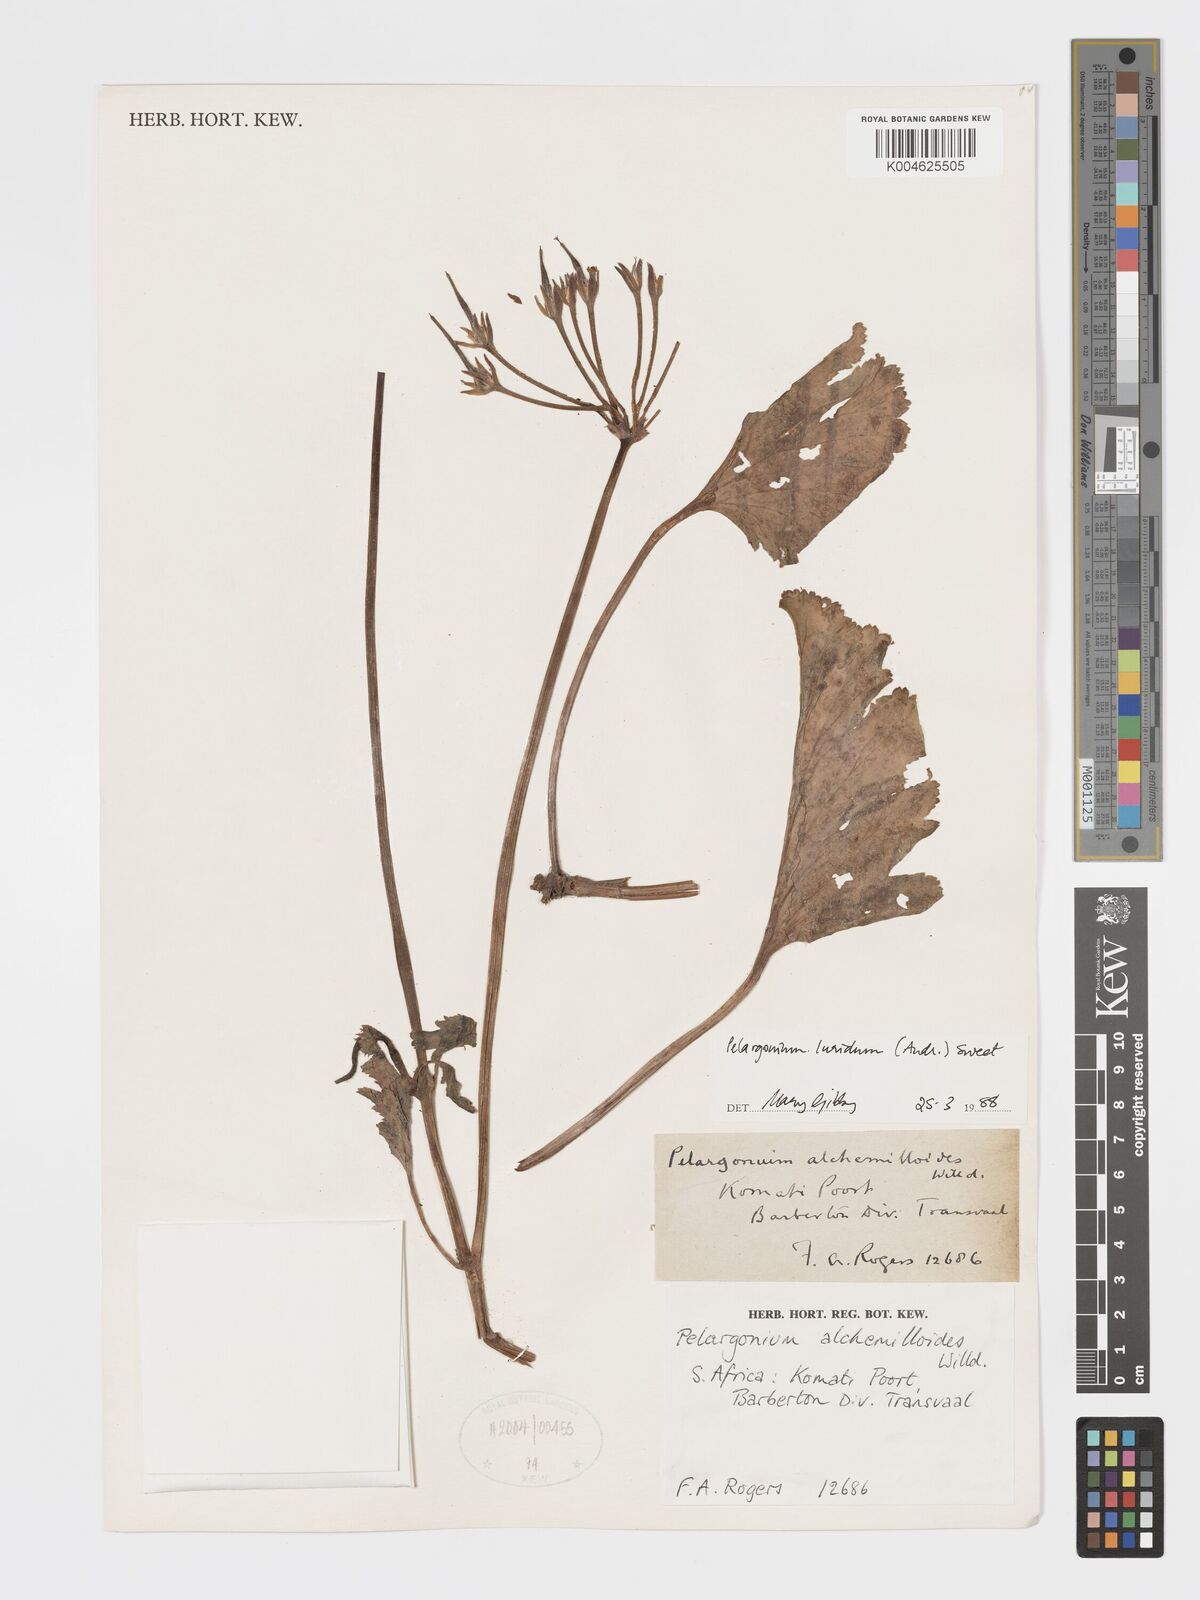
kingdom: Plantae
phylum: Tracheophyta
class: Magnoliopsida
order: Geraniales
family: Geraniaceae
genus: Pelargonium
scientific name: Pelargonium luridum
